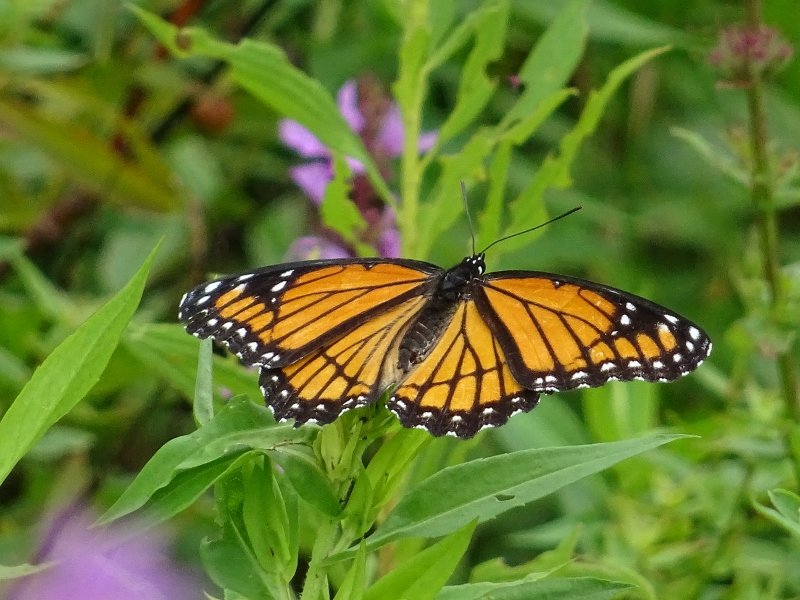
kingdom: Animalia
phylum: Arthropoda
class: Insecta
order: Lepidoptera
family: Nymphalidae
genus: Limenitis
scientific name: Limenitis archippus
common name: Viceroy
